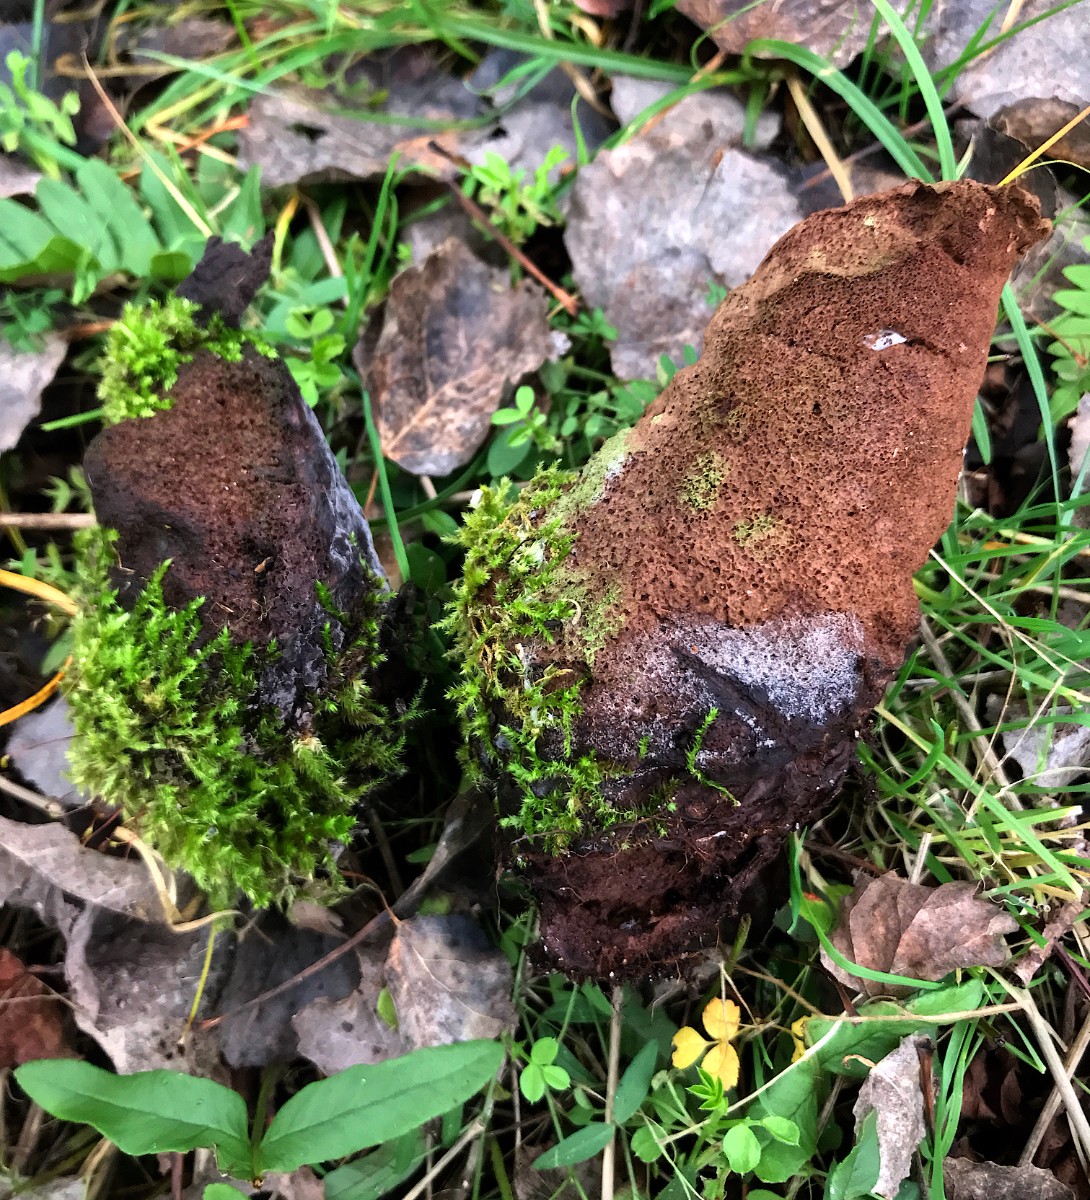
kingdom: Fungi
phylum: Basidiomycota
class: Agaricomycetes
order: Agaricales
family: Agaricaceae
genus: Lycoperdon
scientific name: Lycoperdon
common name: støvbold
